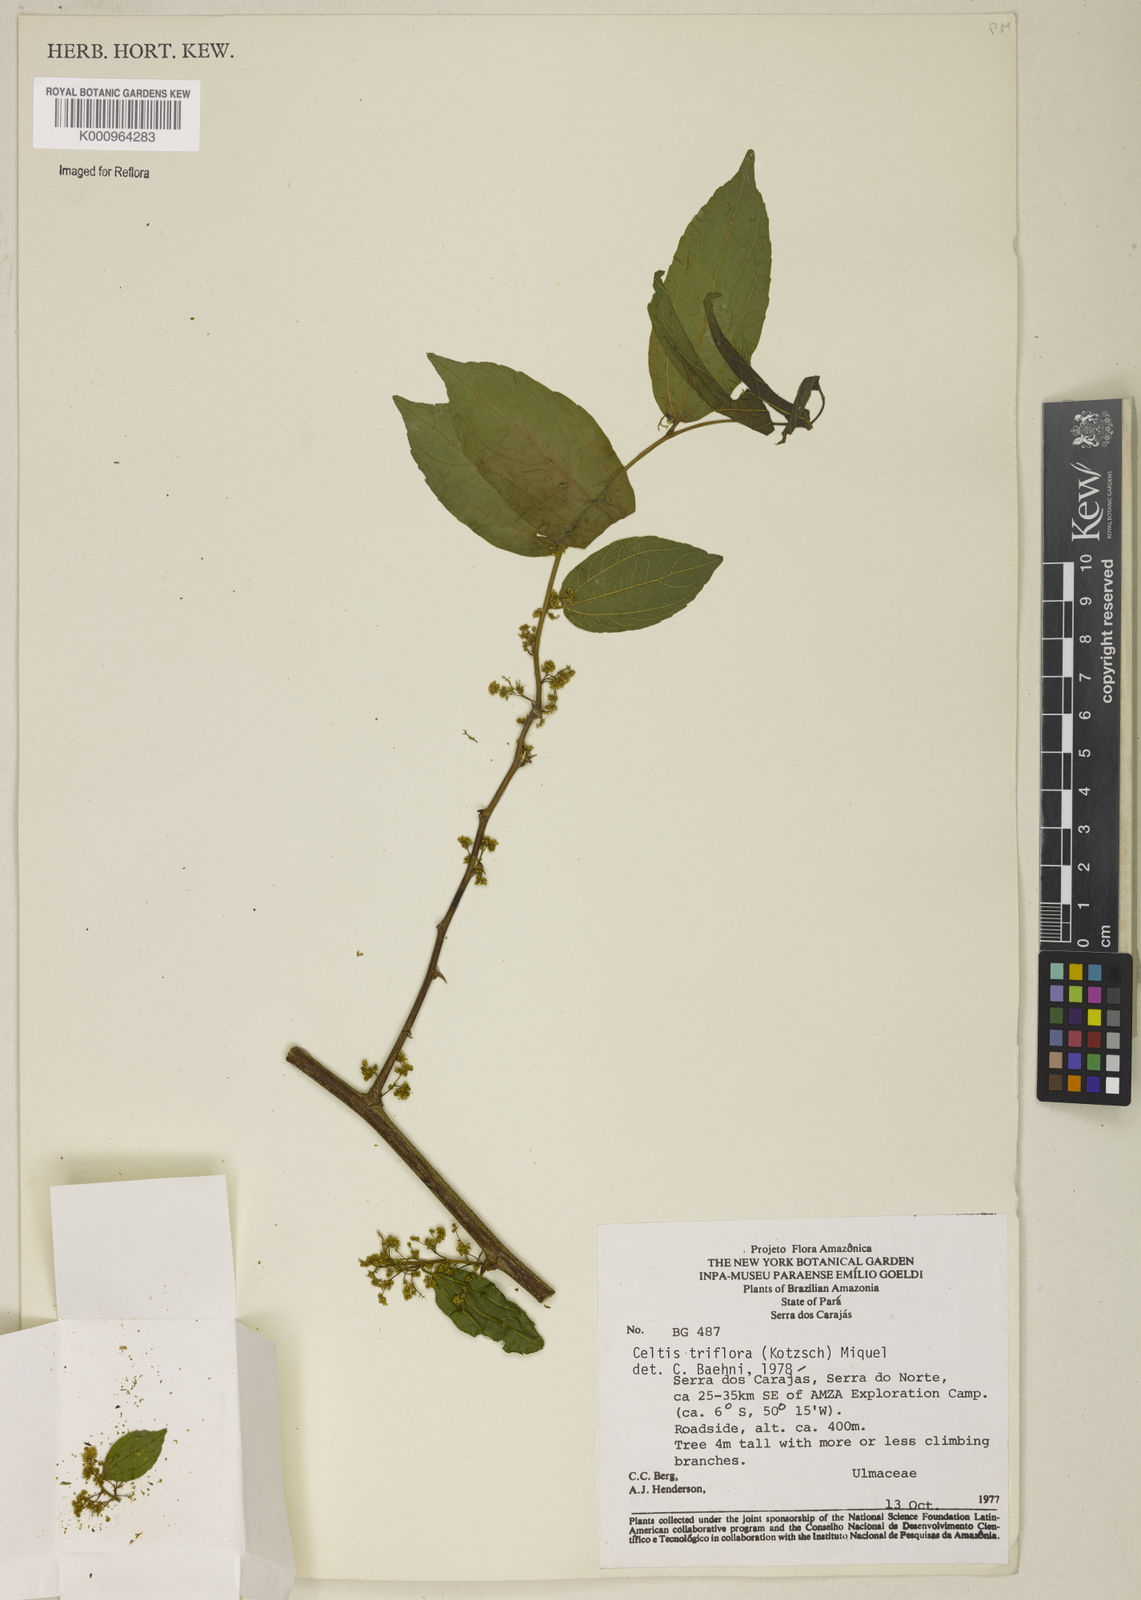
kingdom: Plantae
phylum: Tracheophyta
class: Magnoliopsida
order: Rosales
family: Cannabaceae
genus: Celtis
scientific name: Celtis iguanaea
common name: Iguana hackberry
